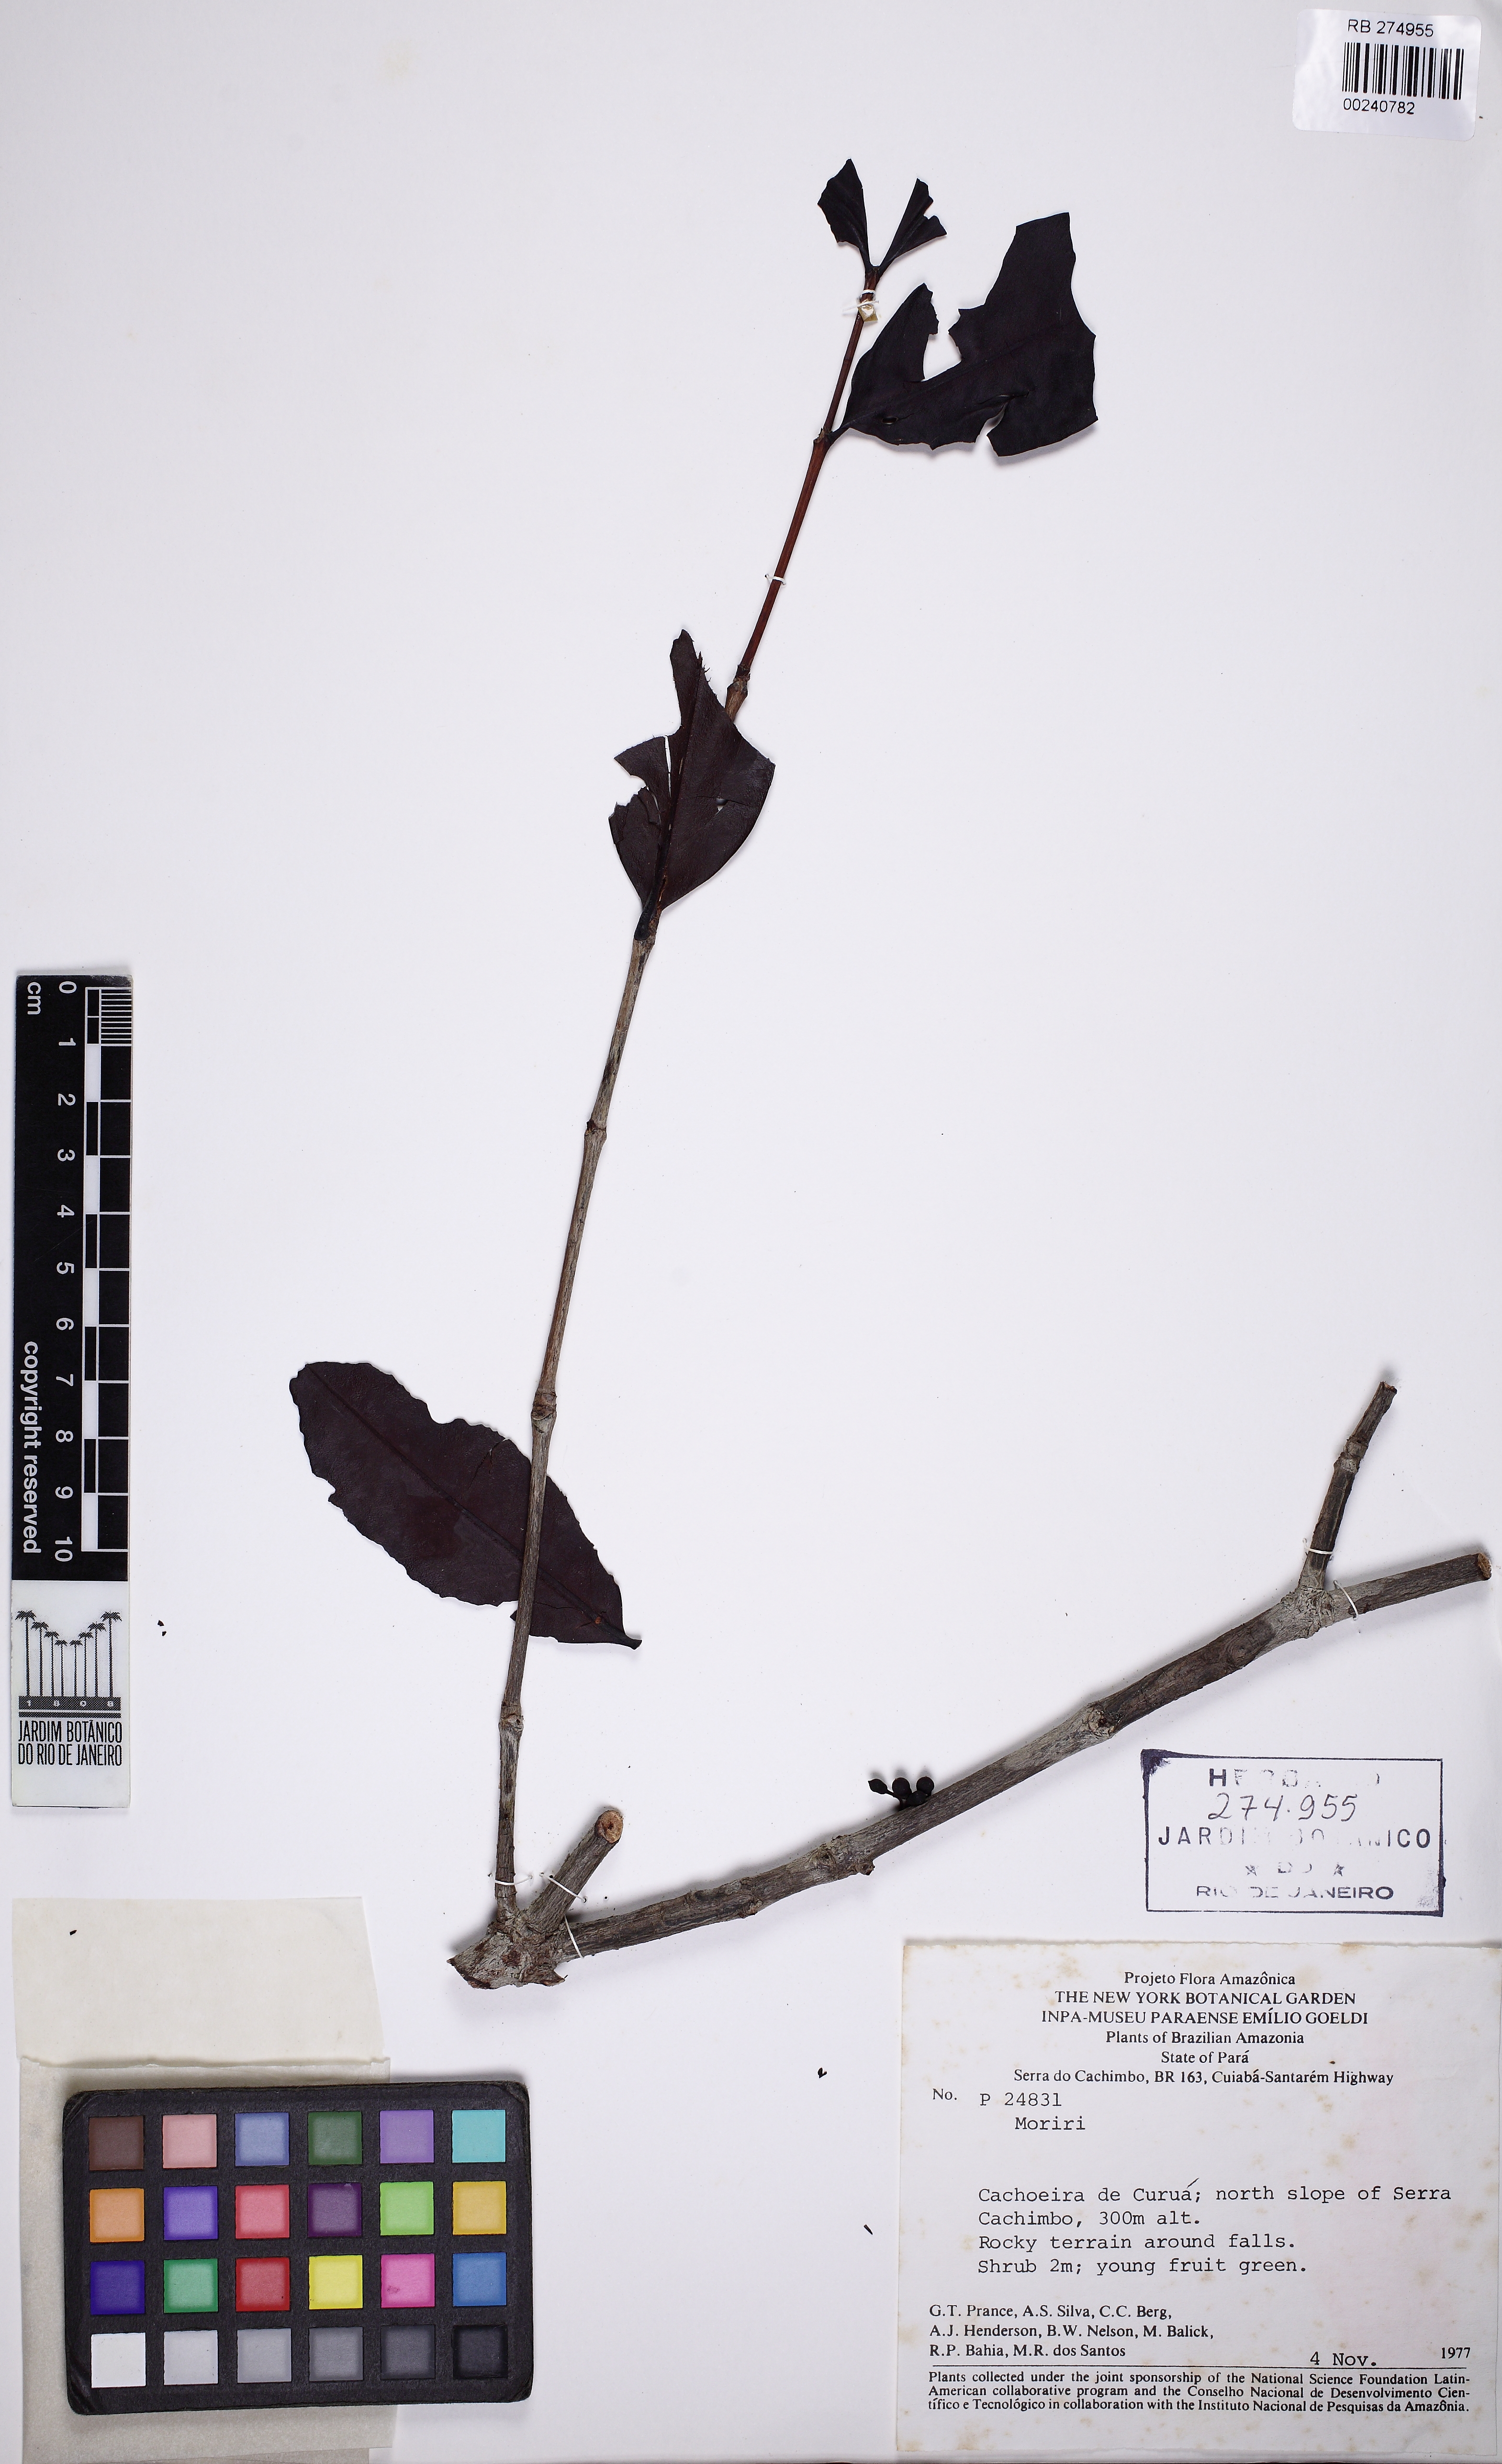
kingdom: Plantae
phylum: Tracheophyta
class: Magnoliopsida
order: Myrtales
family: Melastomataceae
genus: Mouriri
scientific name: Mouriri pranceana
